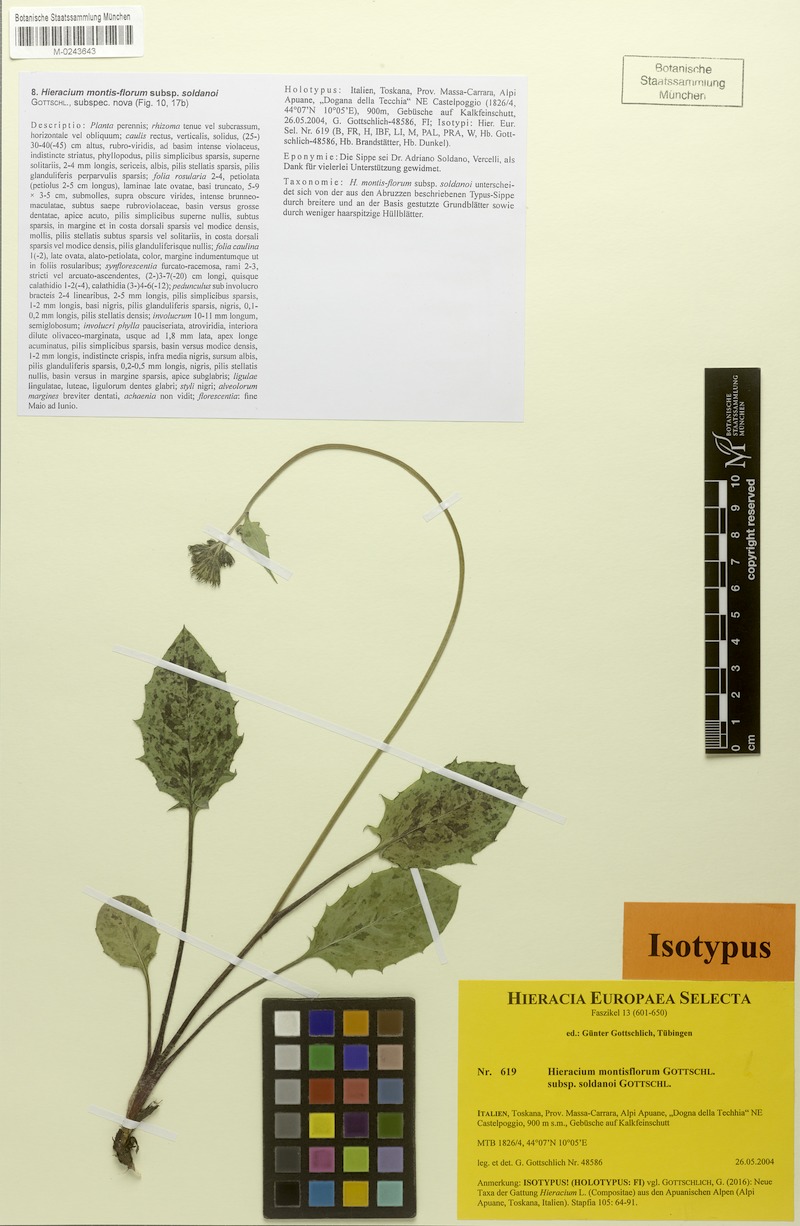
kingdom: Plantae
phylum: Tracheophyta
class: Magnoliopsida
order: Asterales
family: Asteraceae
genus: Hieracium
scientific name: Hieracium montis-florum
